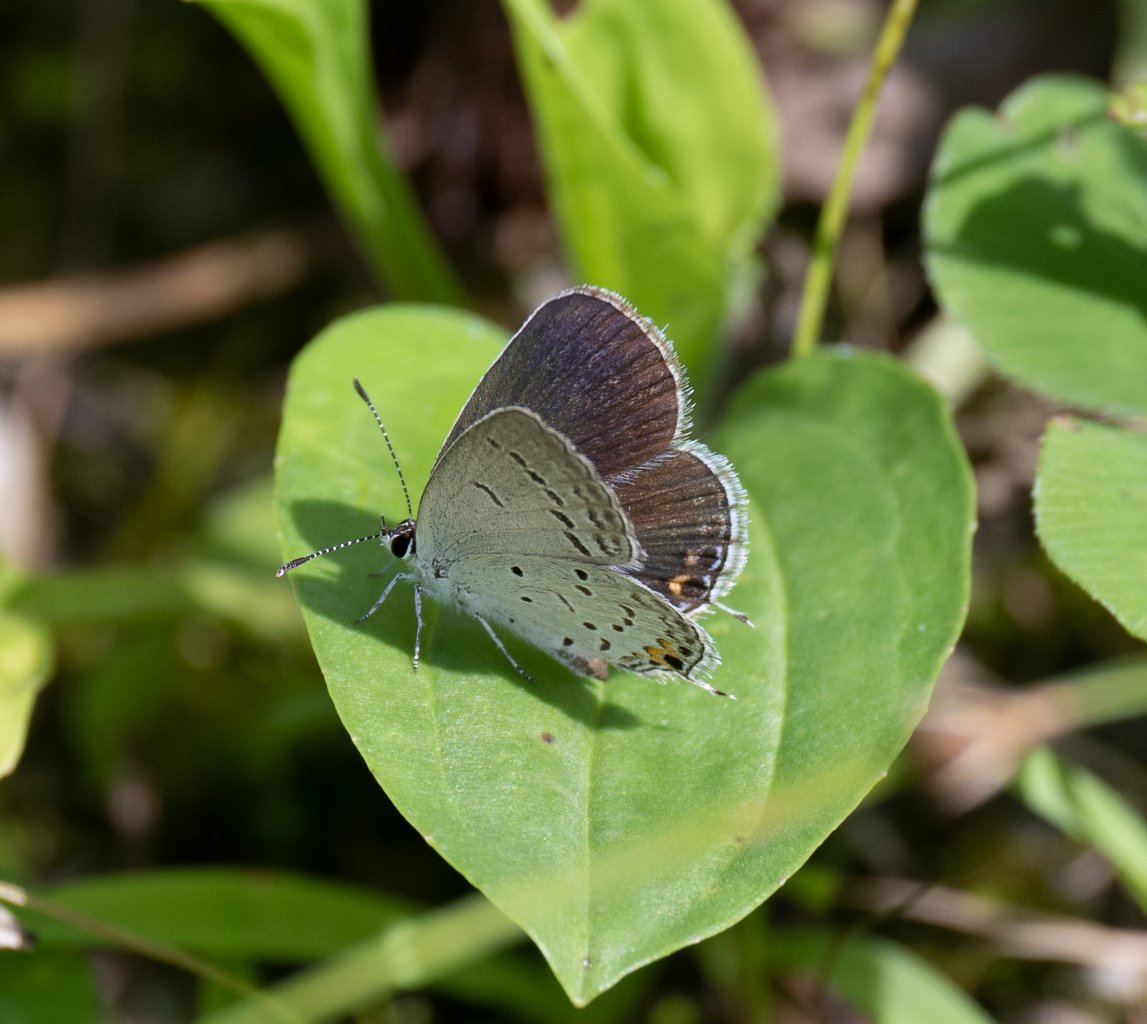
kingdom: Animalia
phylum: Arthropoda
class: Insecta
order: Lepidoptera
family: Lycaenidae
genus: Elkalyce
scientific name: Elkalyce comyntas
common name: Eastern Tailed-Blue
